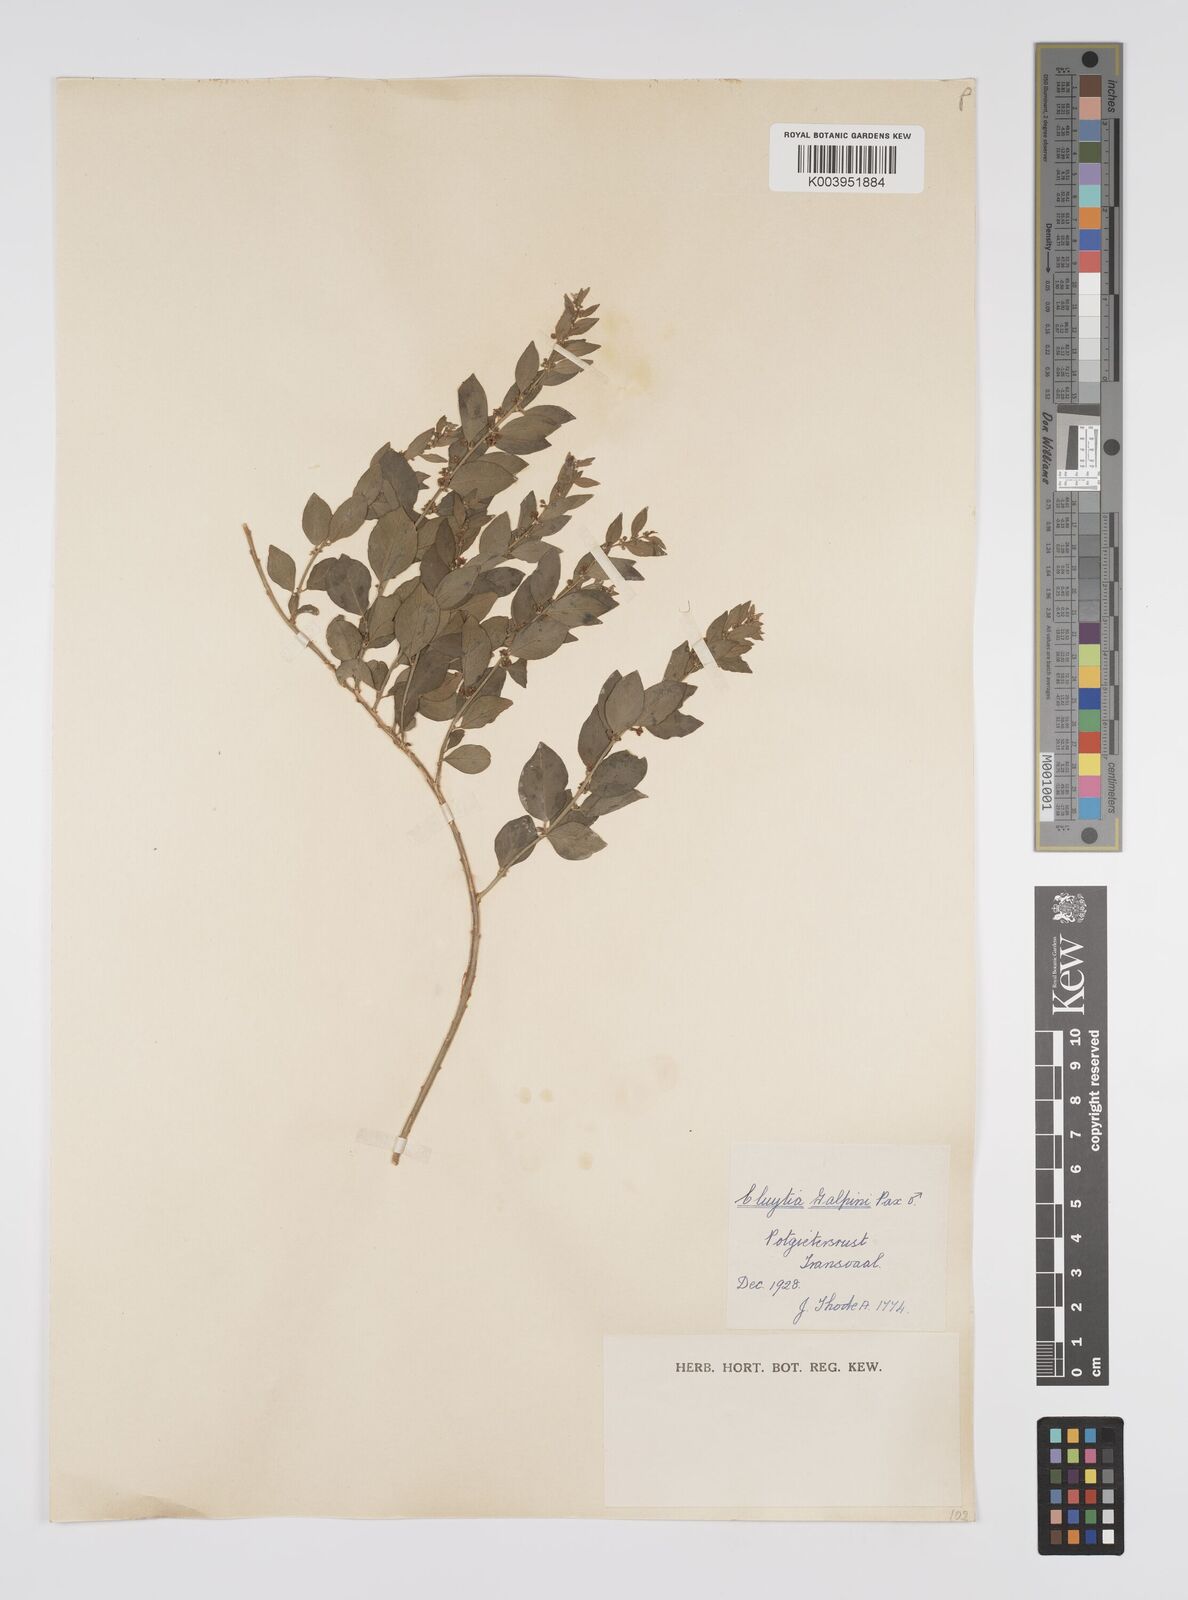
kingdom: Plantae
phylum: Tracheophyta
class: Magnoliopsida
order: Malpighiales
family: Peraceae
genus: Clutia
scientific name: Clutia galpinii
